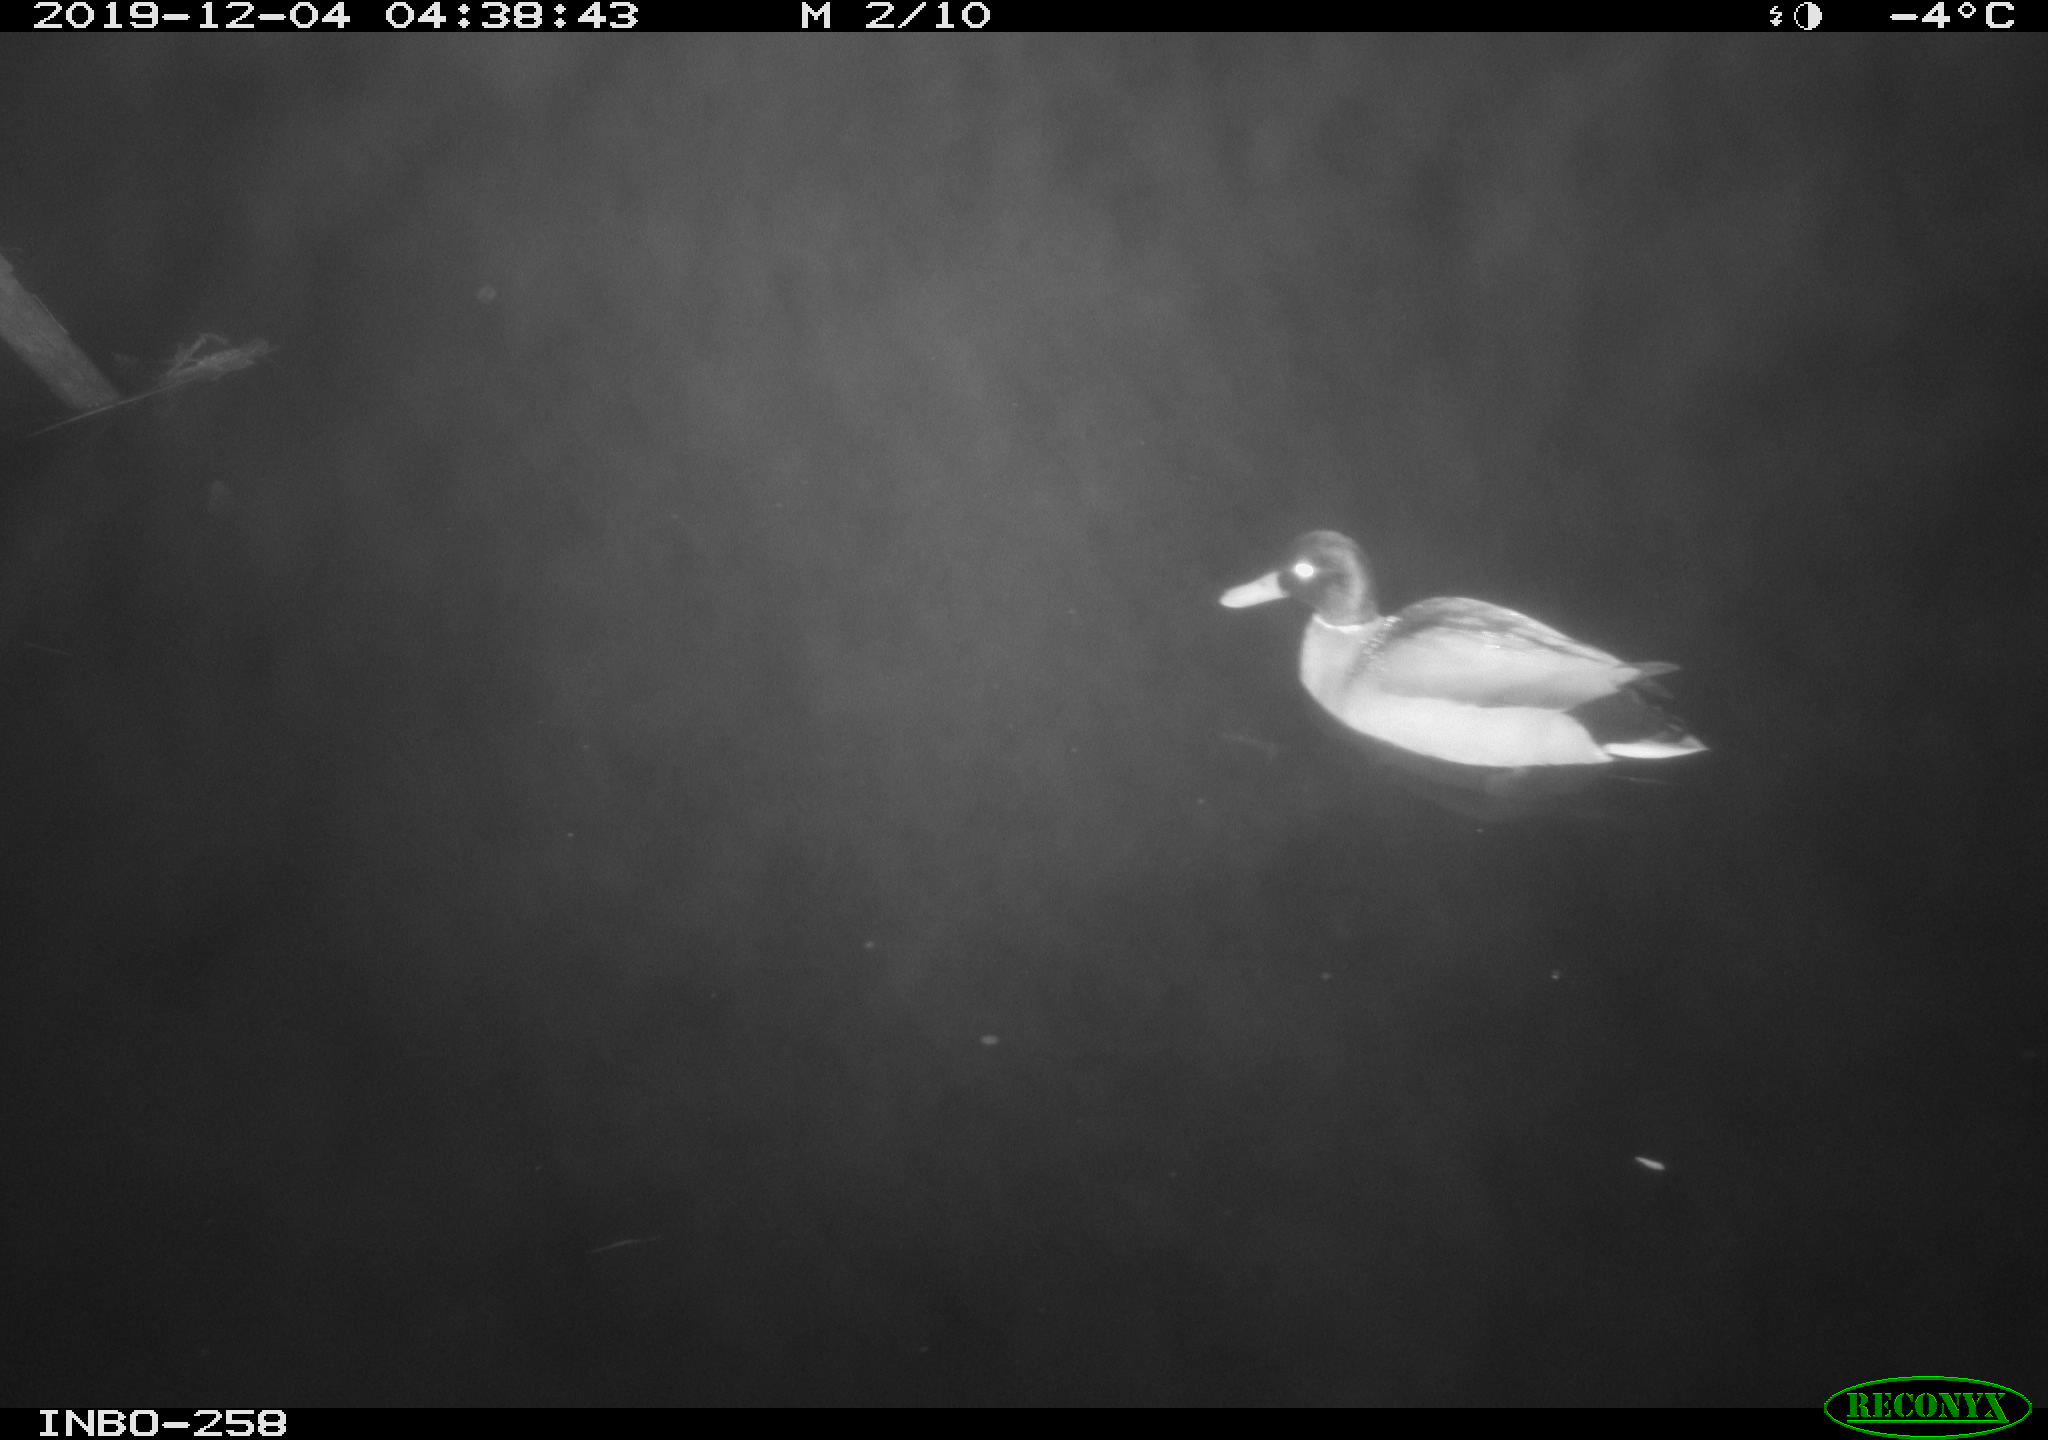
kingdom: Animalia
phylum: Chordata
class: Aves
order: Anseriformes
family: Anatidae
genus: Anas
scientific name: Anas platyrhynchos
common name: Mallard
